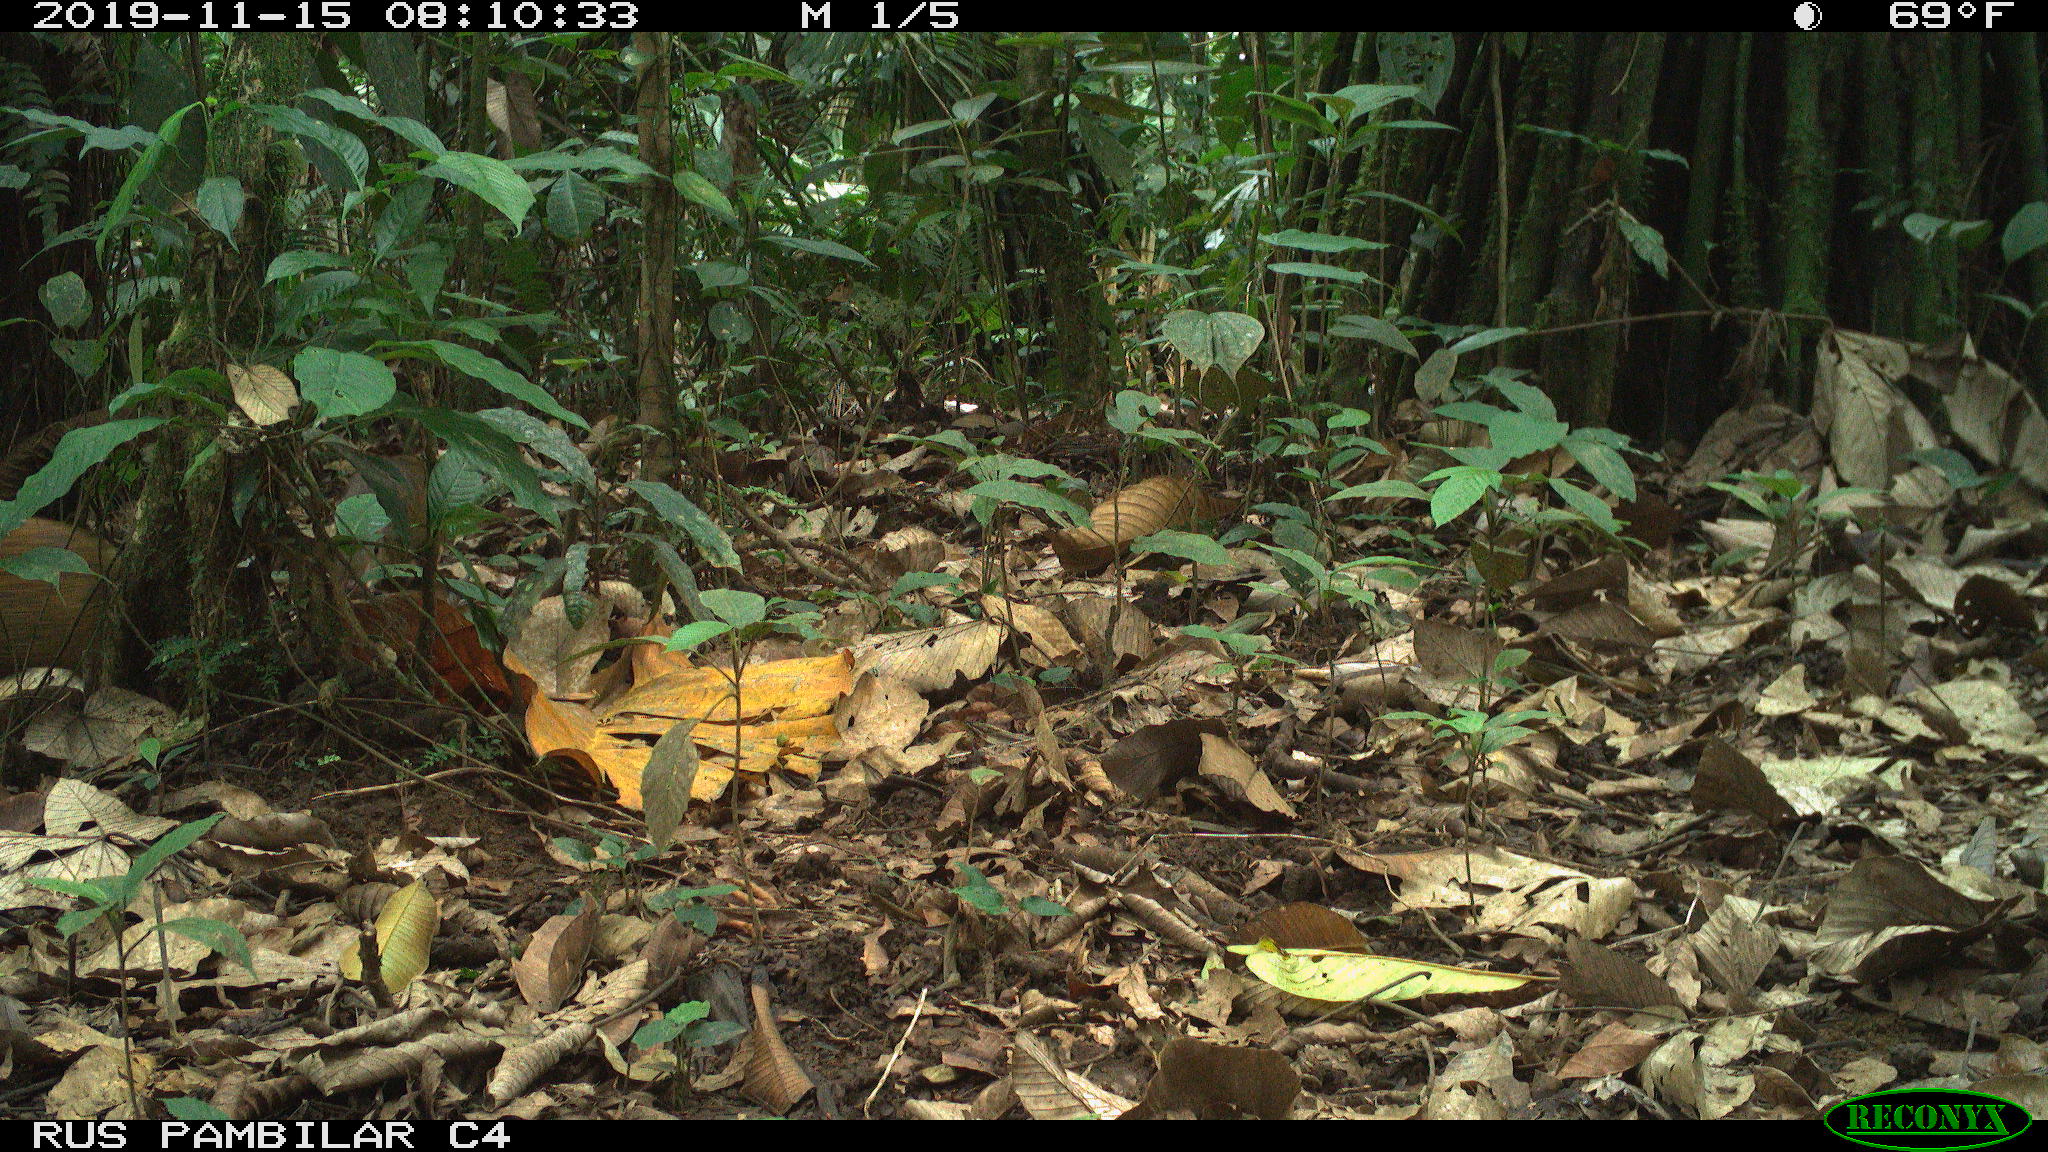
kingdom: Animalia
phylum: Chordata
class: Mammalia
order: Rodentia
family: Dasyproctidae
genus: Dasyprocta
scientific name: Dasyprocta punctata
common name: Central american agouti
